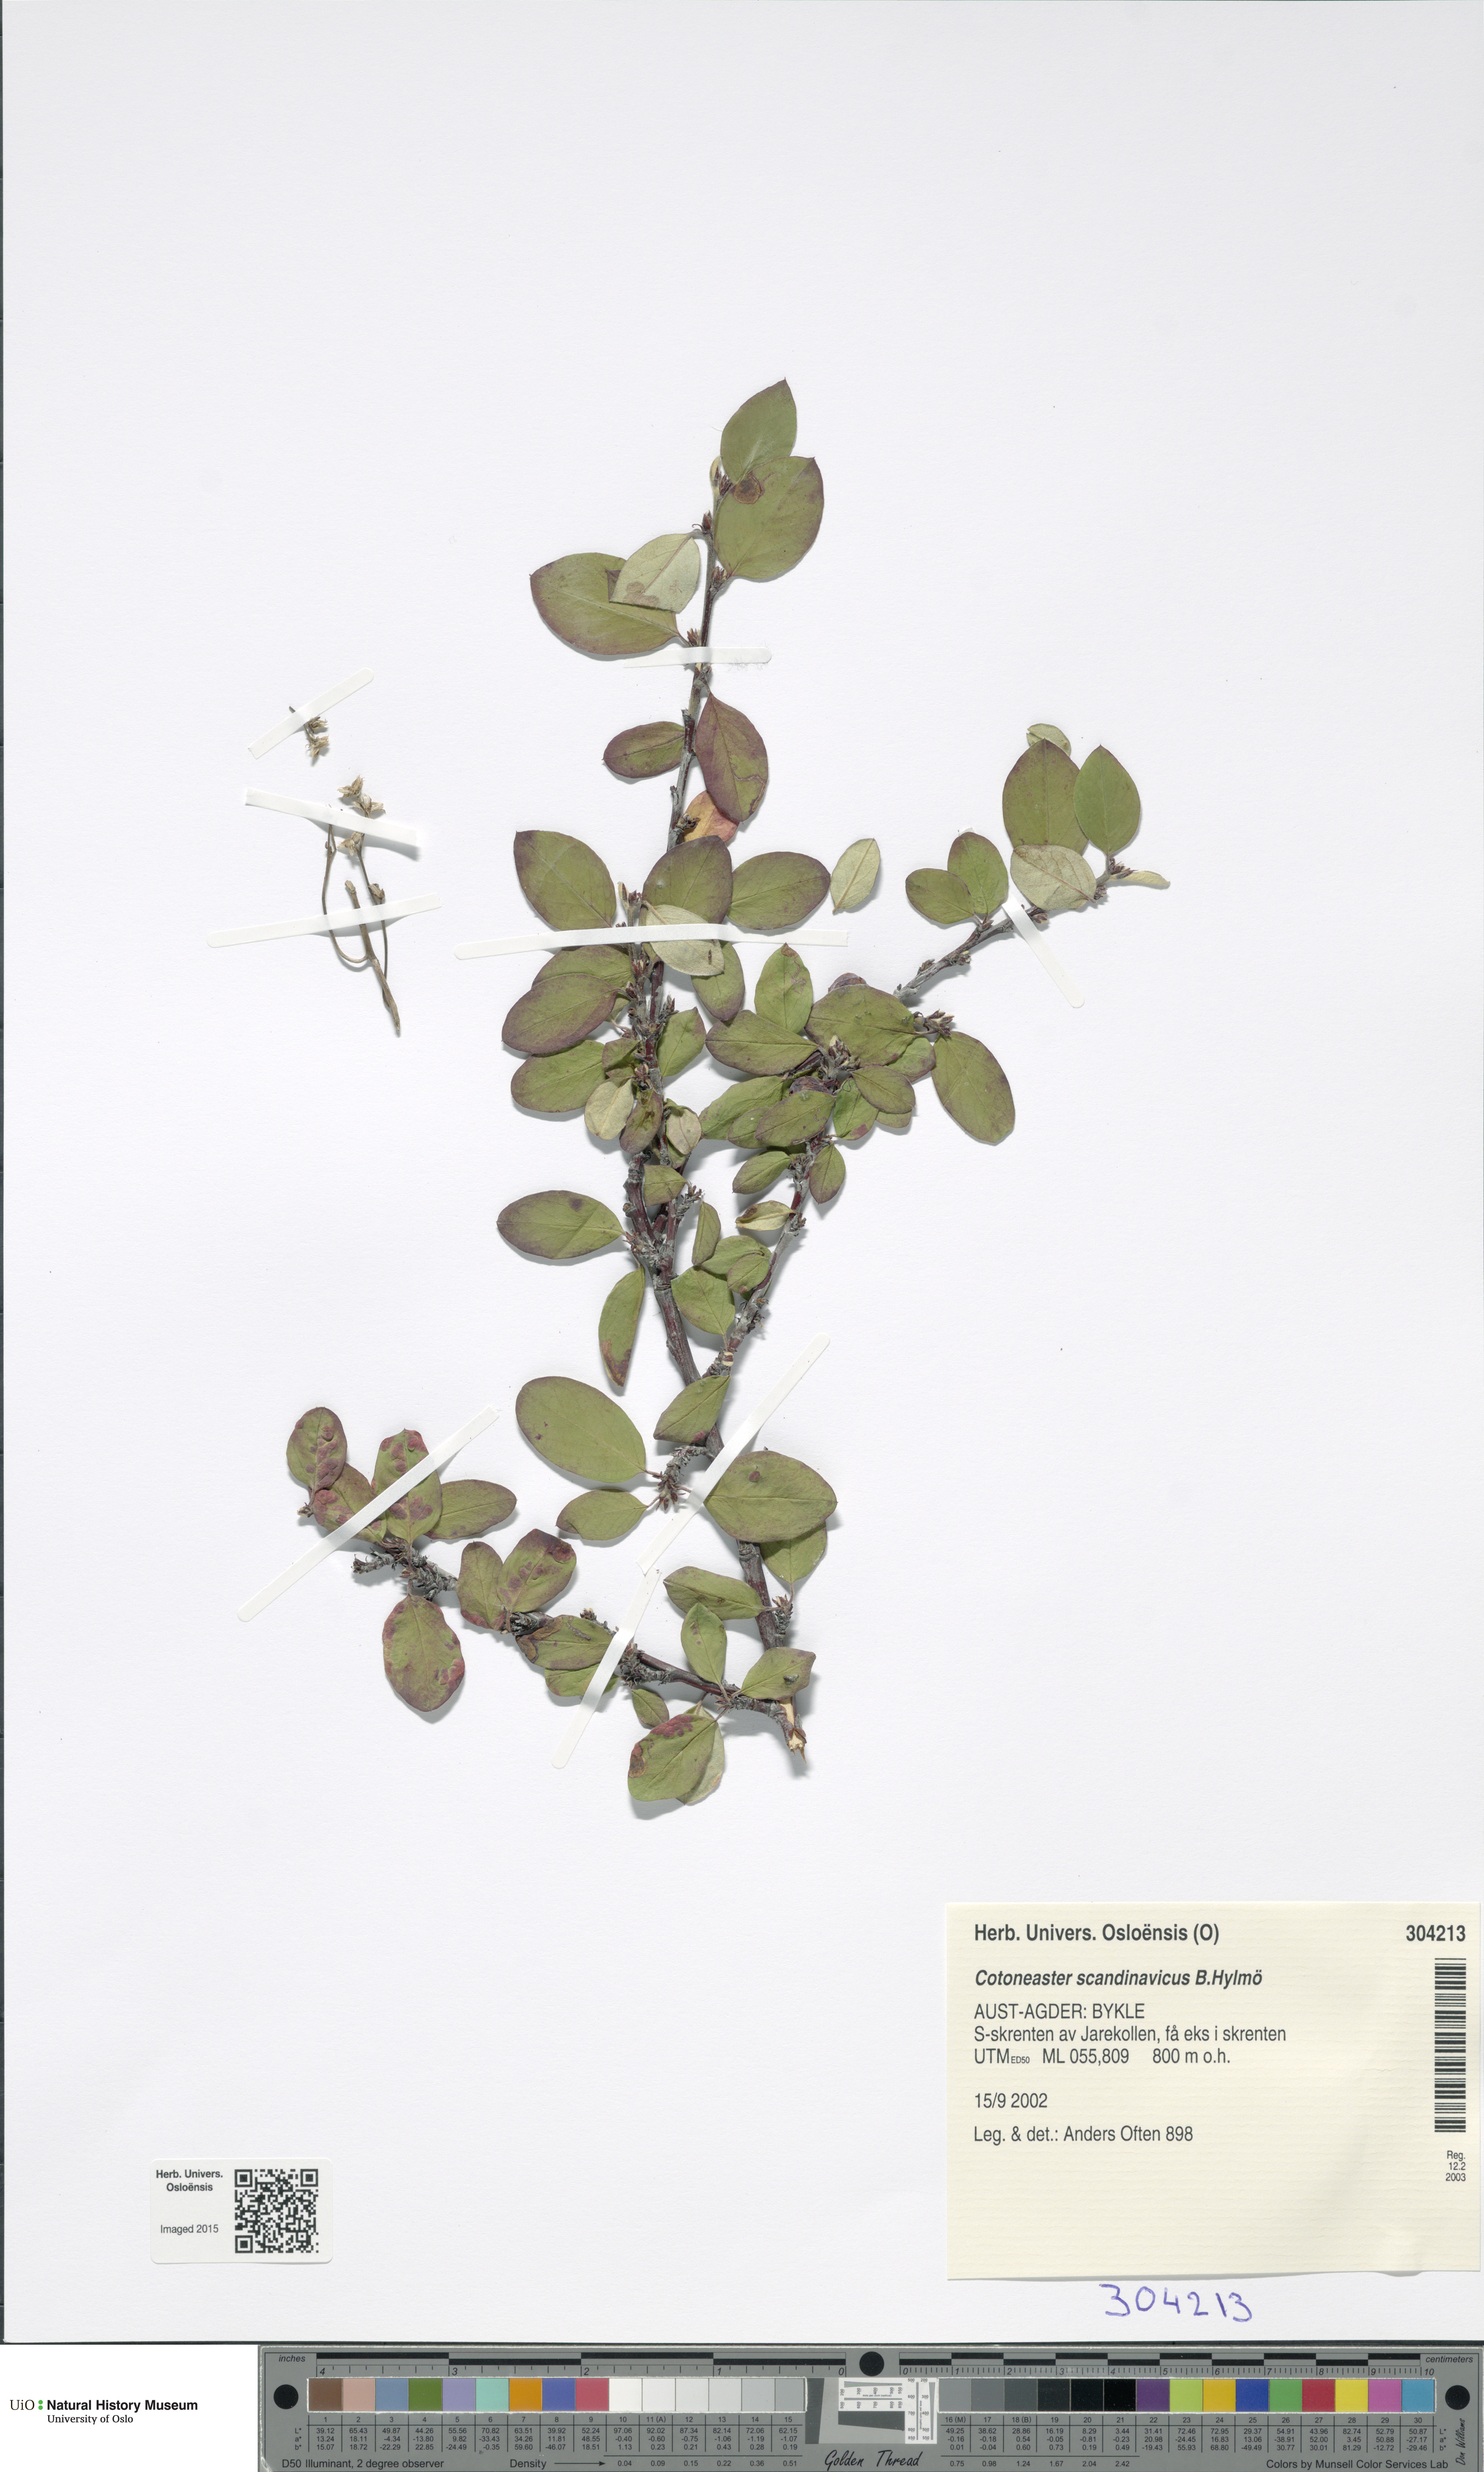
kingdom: Plantae
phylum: Tracheophyta
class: Magnoliopsida
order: Rosales
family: Rosaceae
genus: Cotoneaster
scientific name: Cotoneaster integerrimus
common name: Wild cotoneaster
